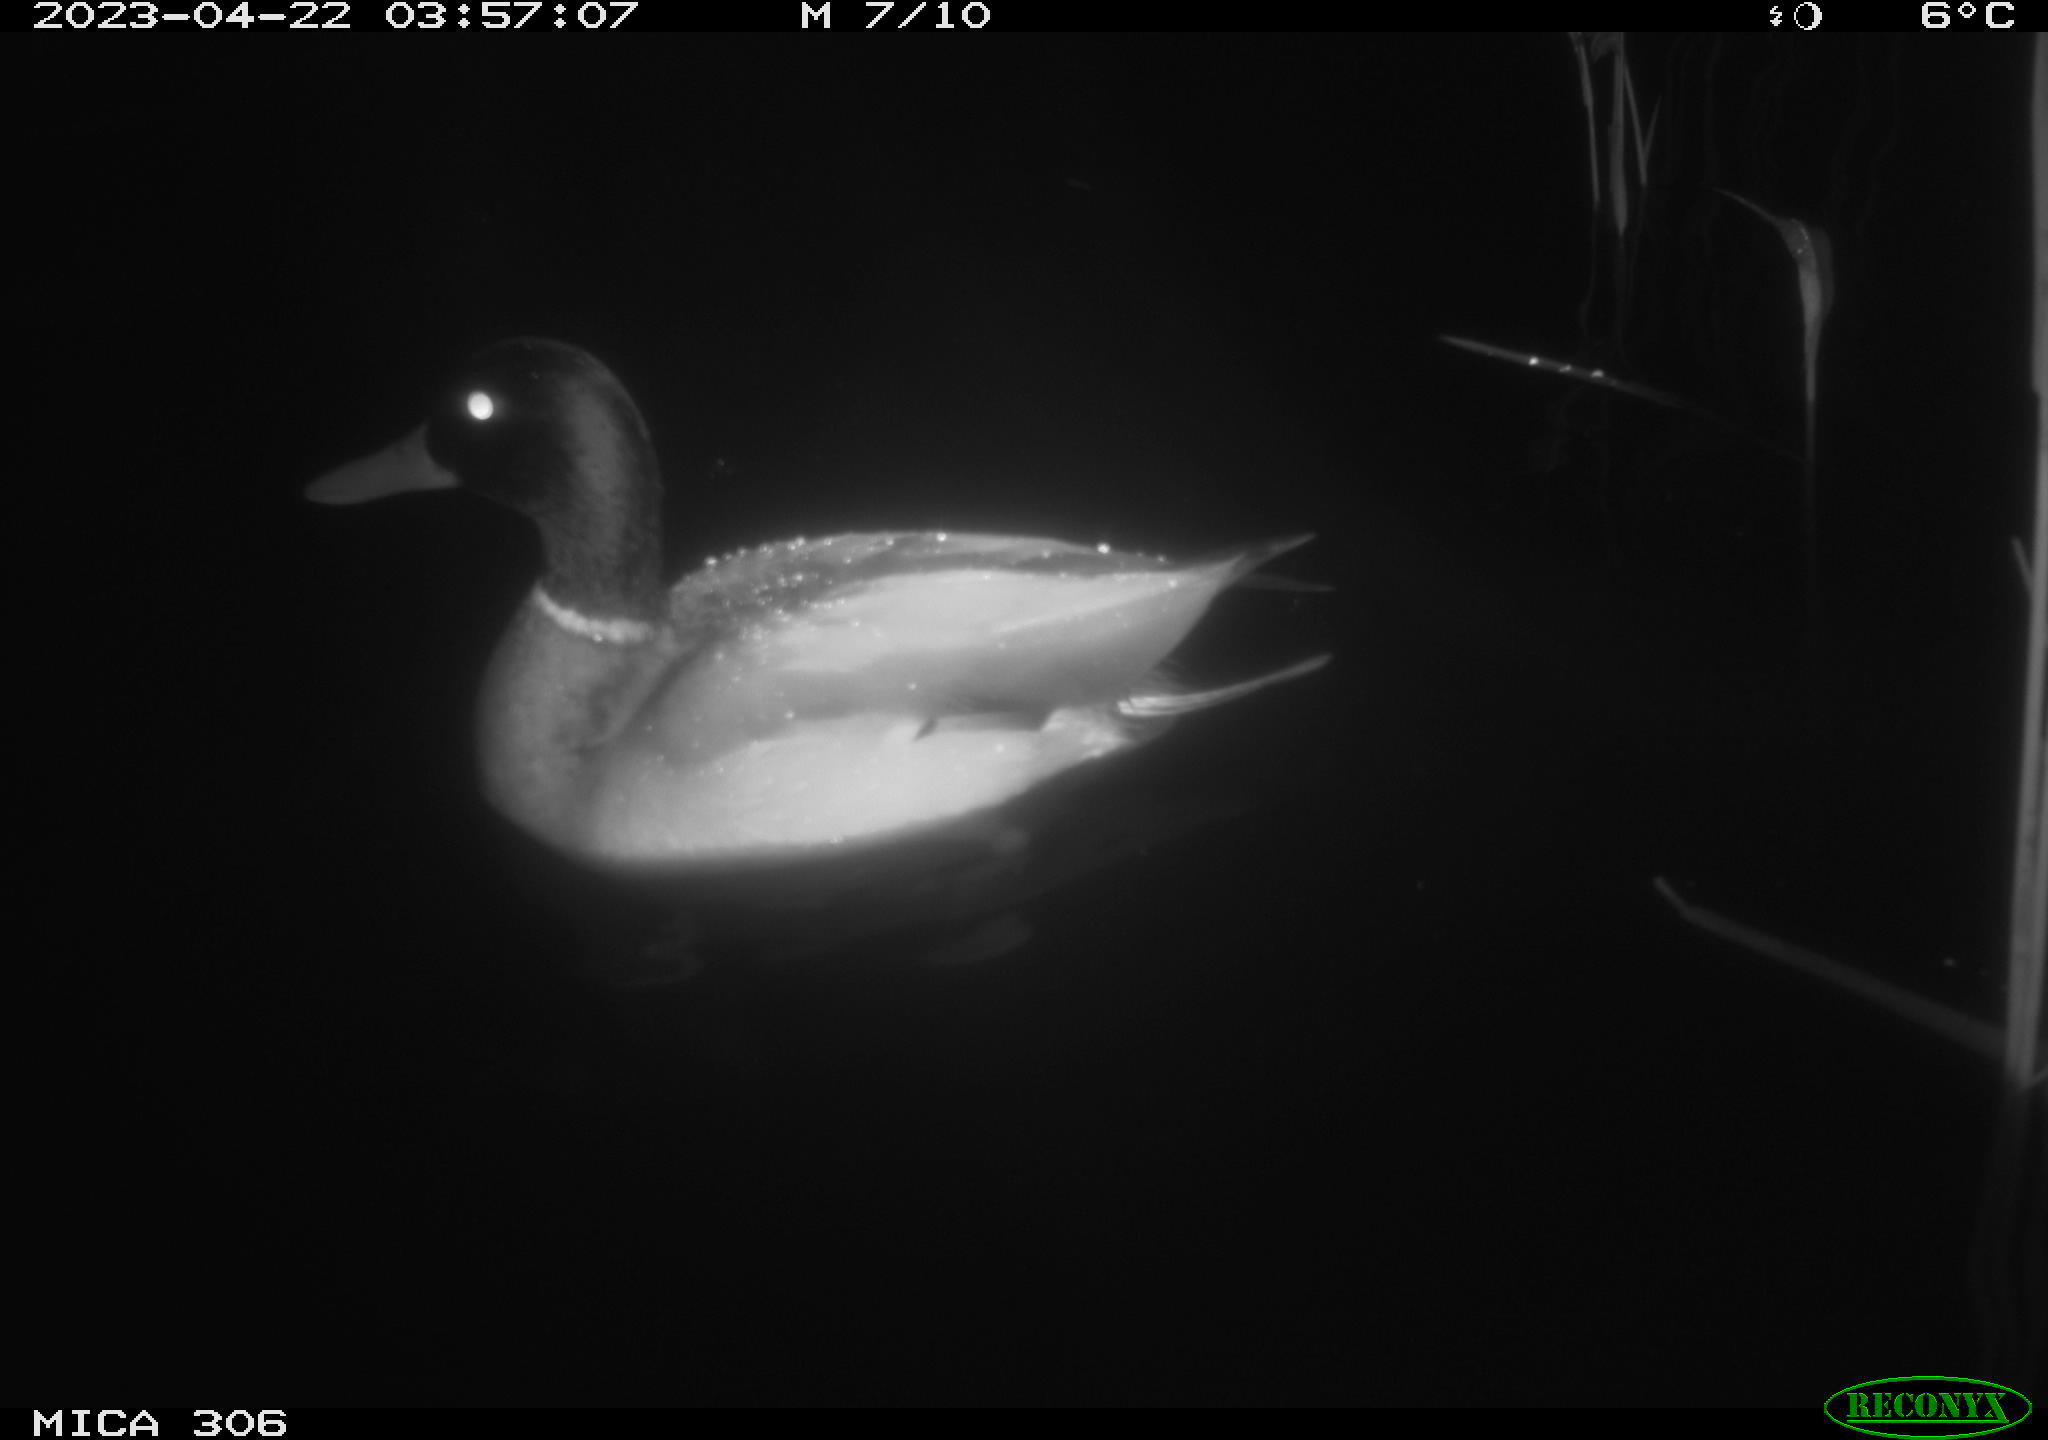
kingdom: Animalia
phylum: Chordata
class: Aves
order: Anseriformes
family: Anatidae
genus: Anas
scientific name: Anas
